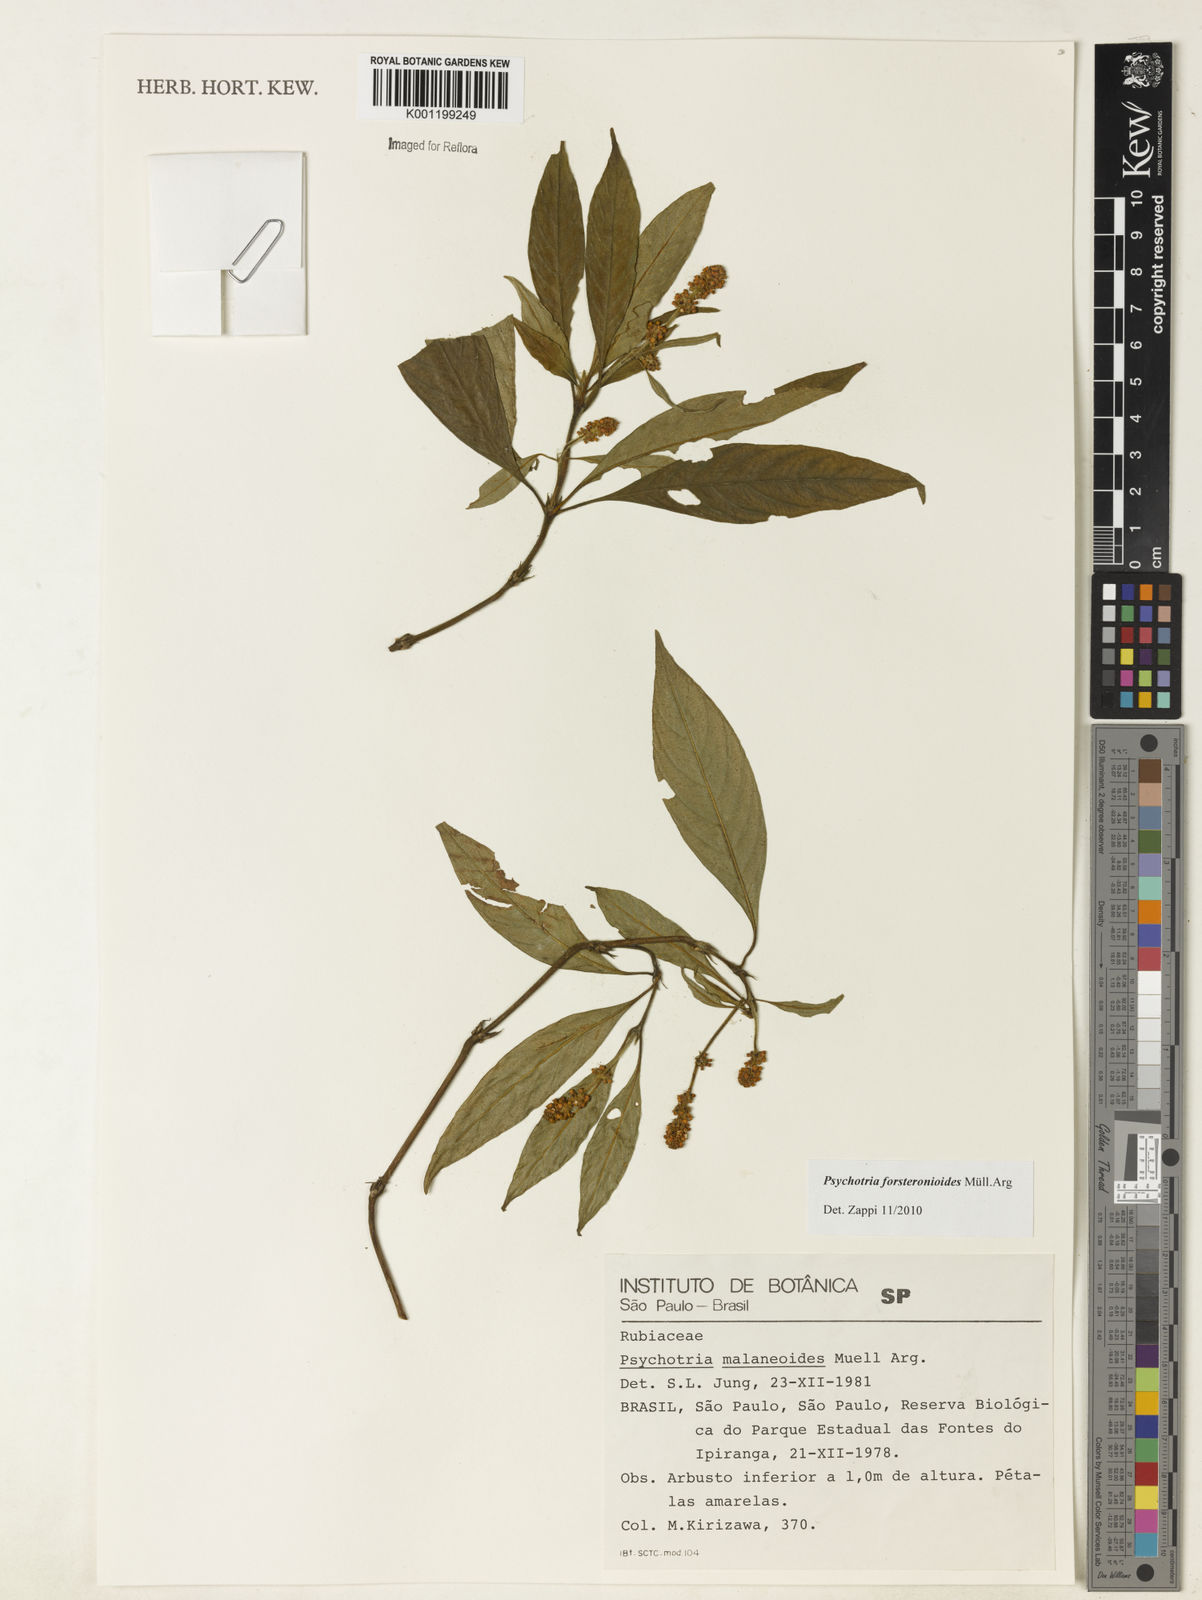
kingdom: Plantae
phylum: Tracheophyta
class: Magnoliopsida
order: Gentianales
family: Rubiaceae
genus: Psychotria
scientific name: Psychotria
